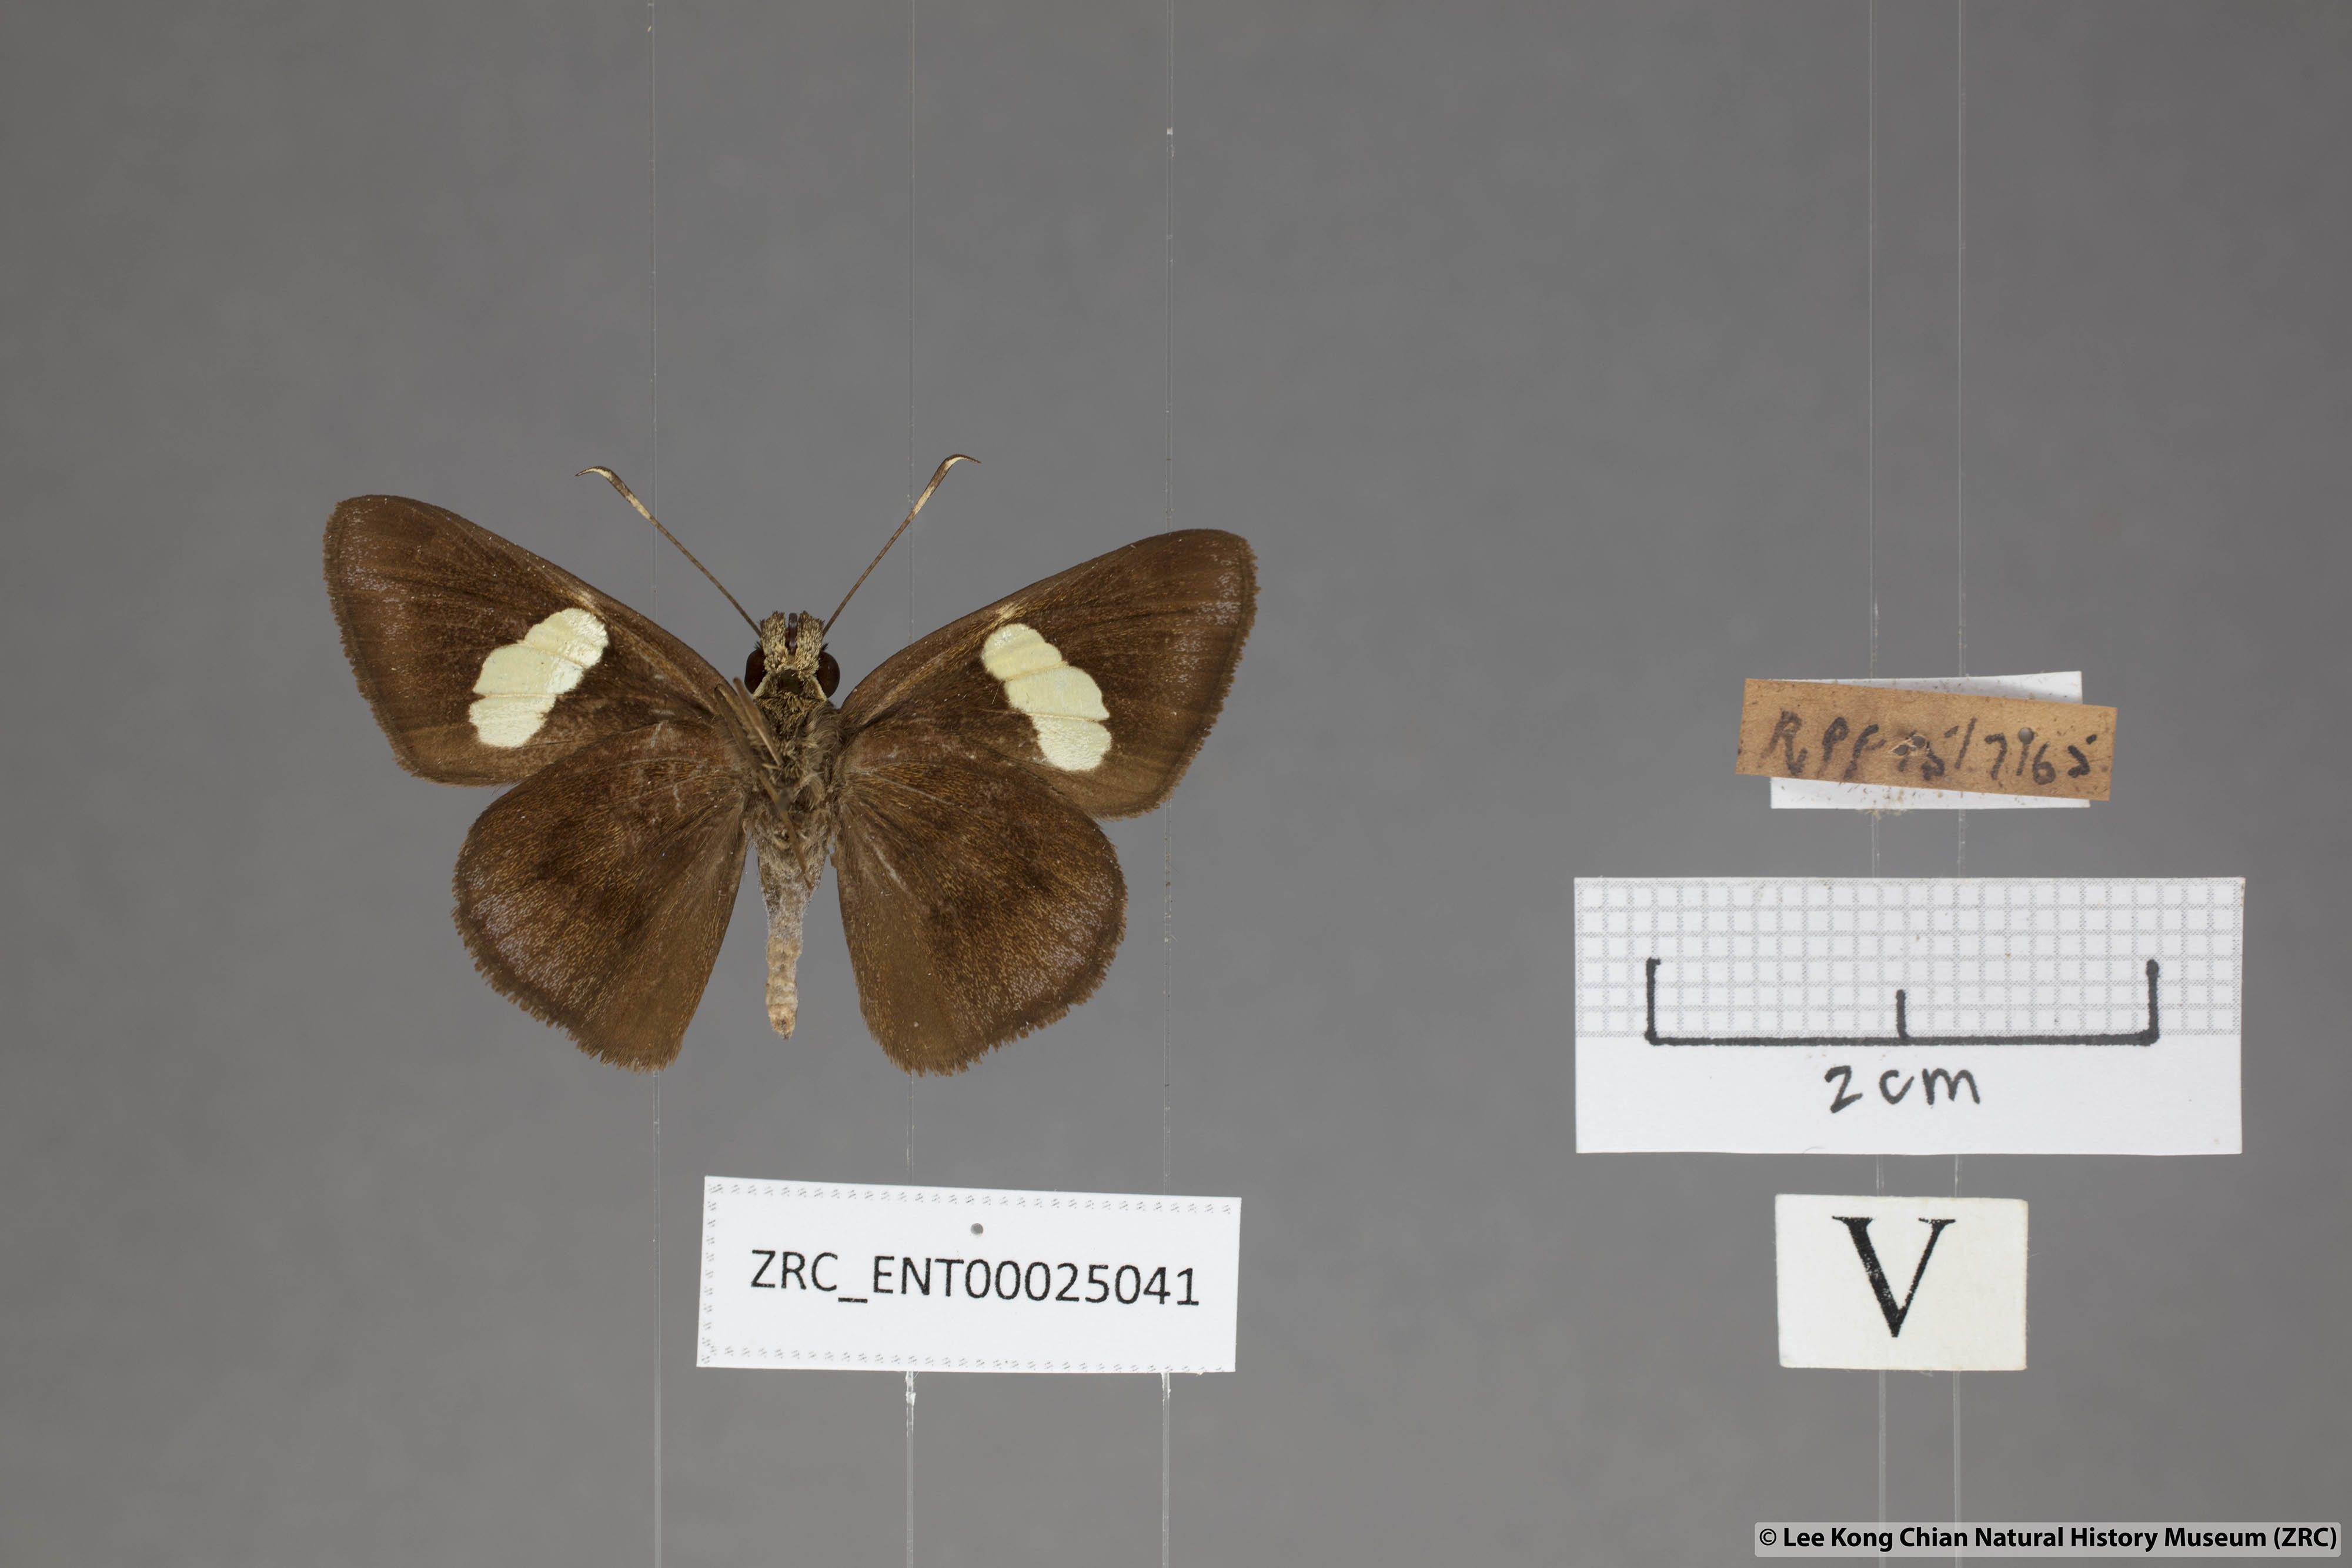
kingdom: Animalia
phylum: Arthropoda
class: Insecta
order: Lepidoptera
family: Hesperiidae
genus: Notocrypta
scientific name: Notocrypta paralysos
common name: Common banded demon
